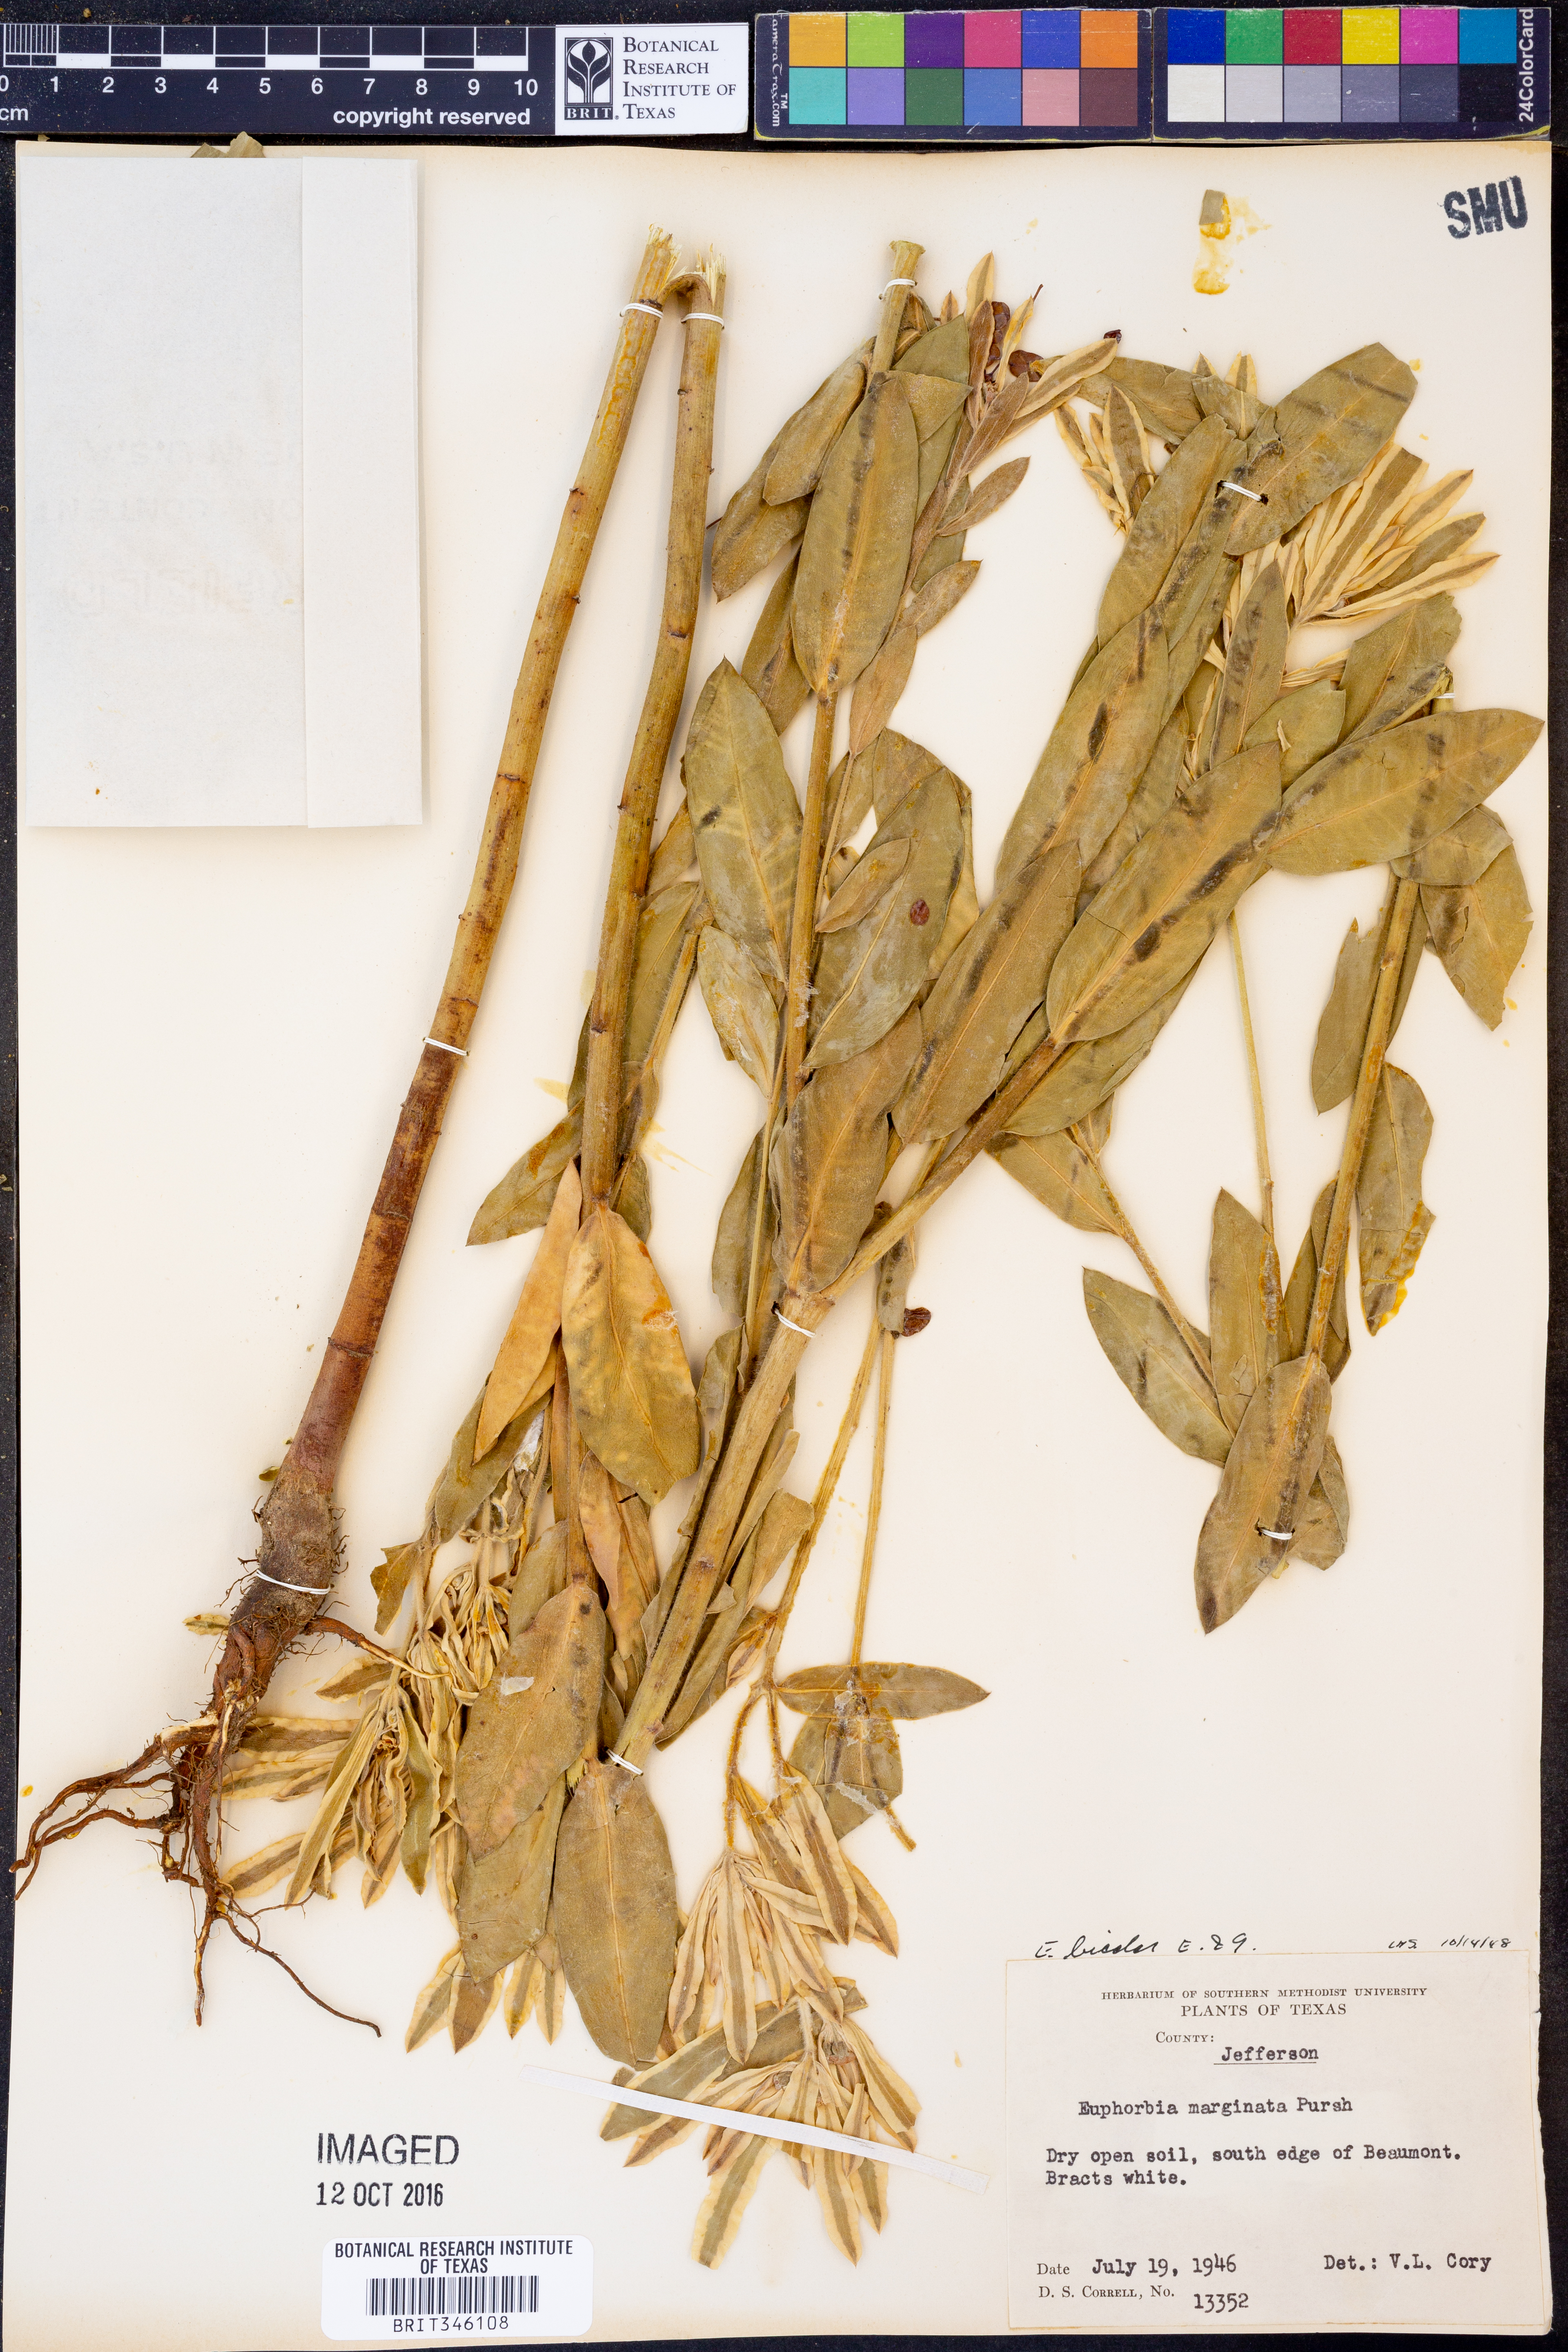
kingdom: Plantae
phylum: Tracheophyta
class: Magnoliopsida
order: Malpighiales
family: Euphorbiaceae
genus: Euphorbia
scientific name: Euphorbia bicolor
